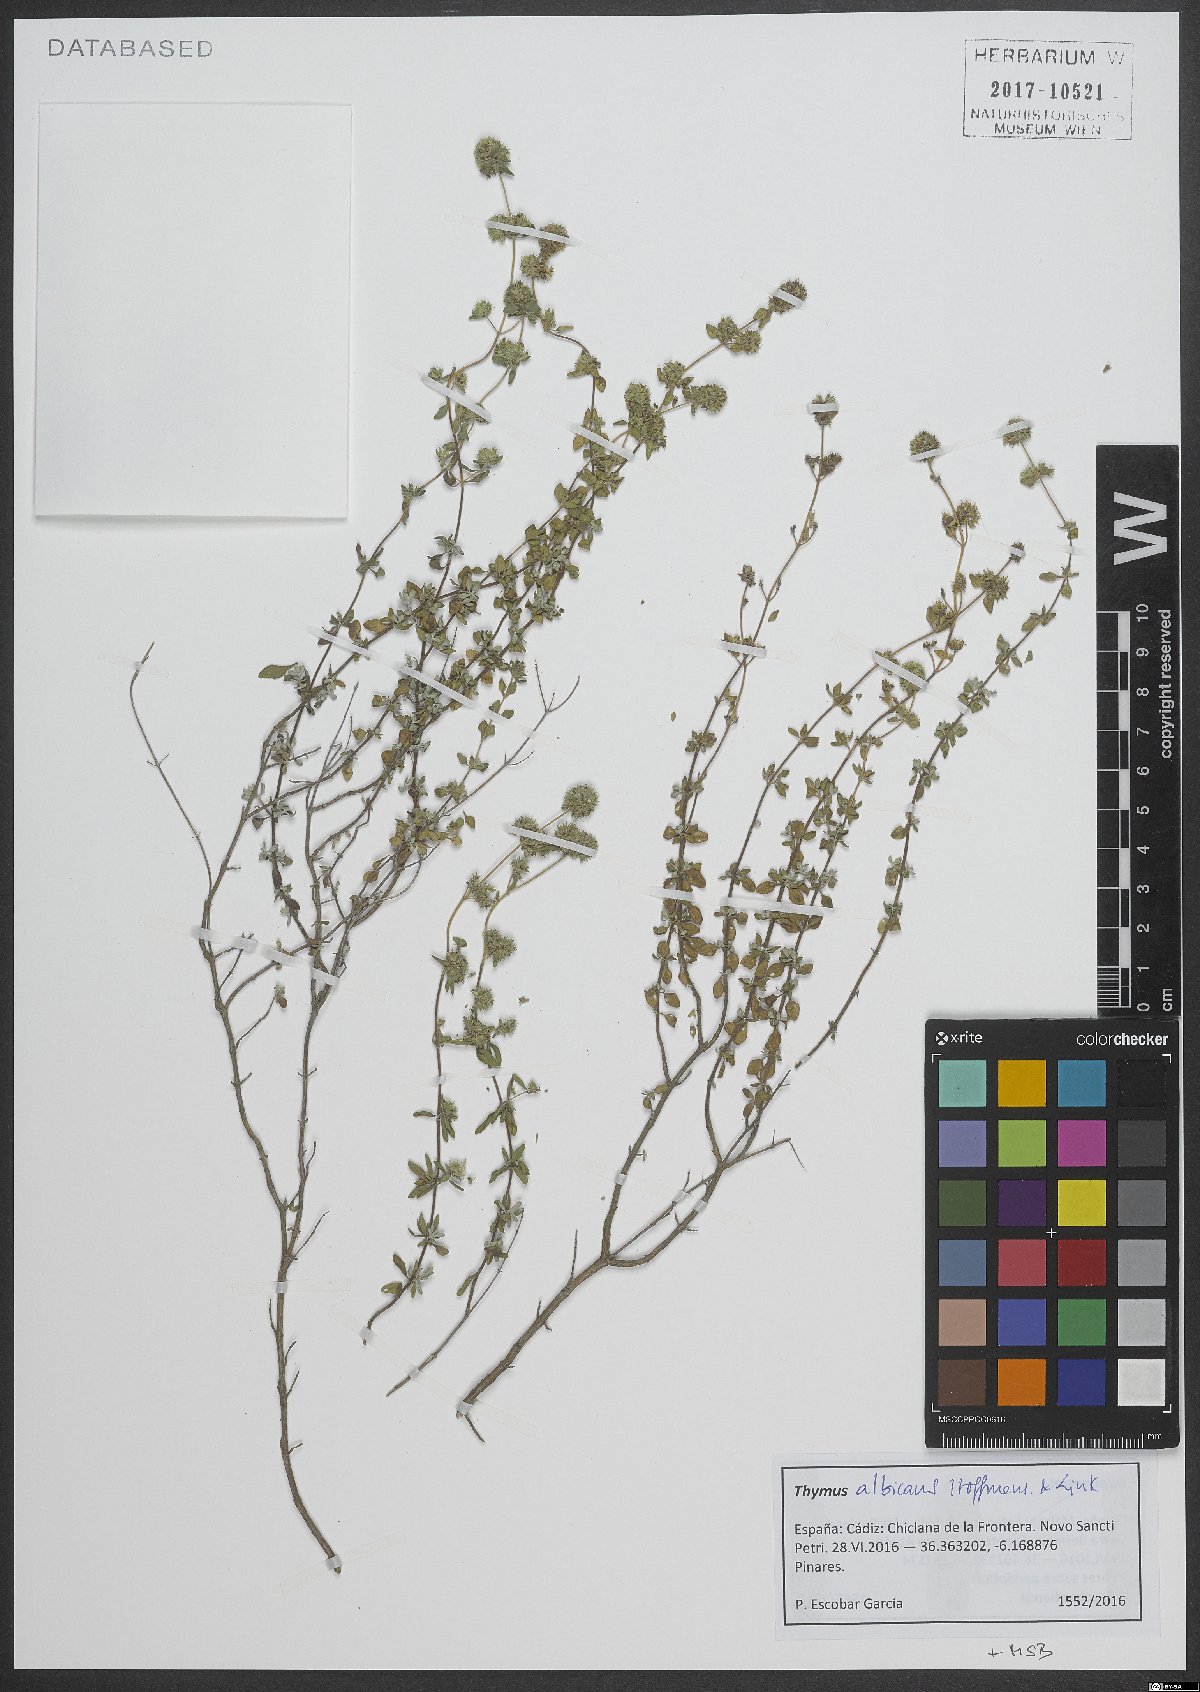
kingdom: Plantae
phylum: Tracheophyta
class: Magnoliopsida
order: Lamiales
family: Lamiaceae
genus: Thymus
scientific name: Thymus albicans
